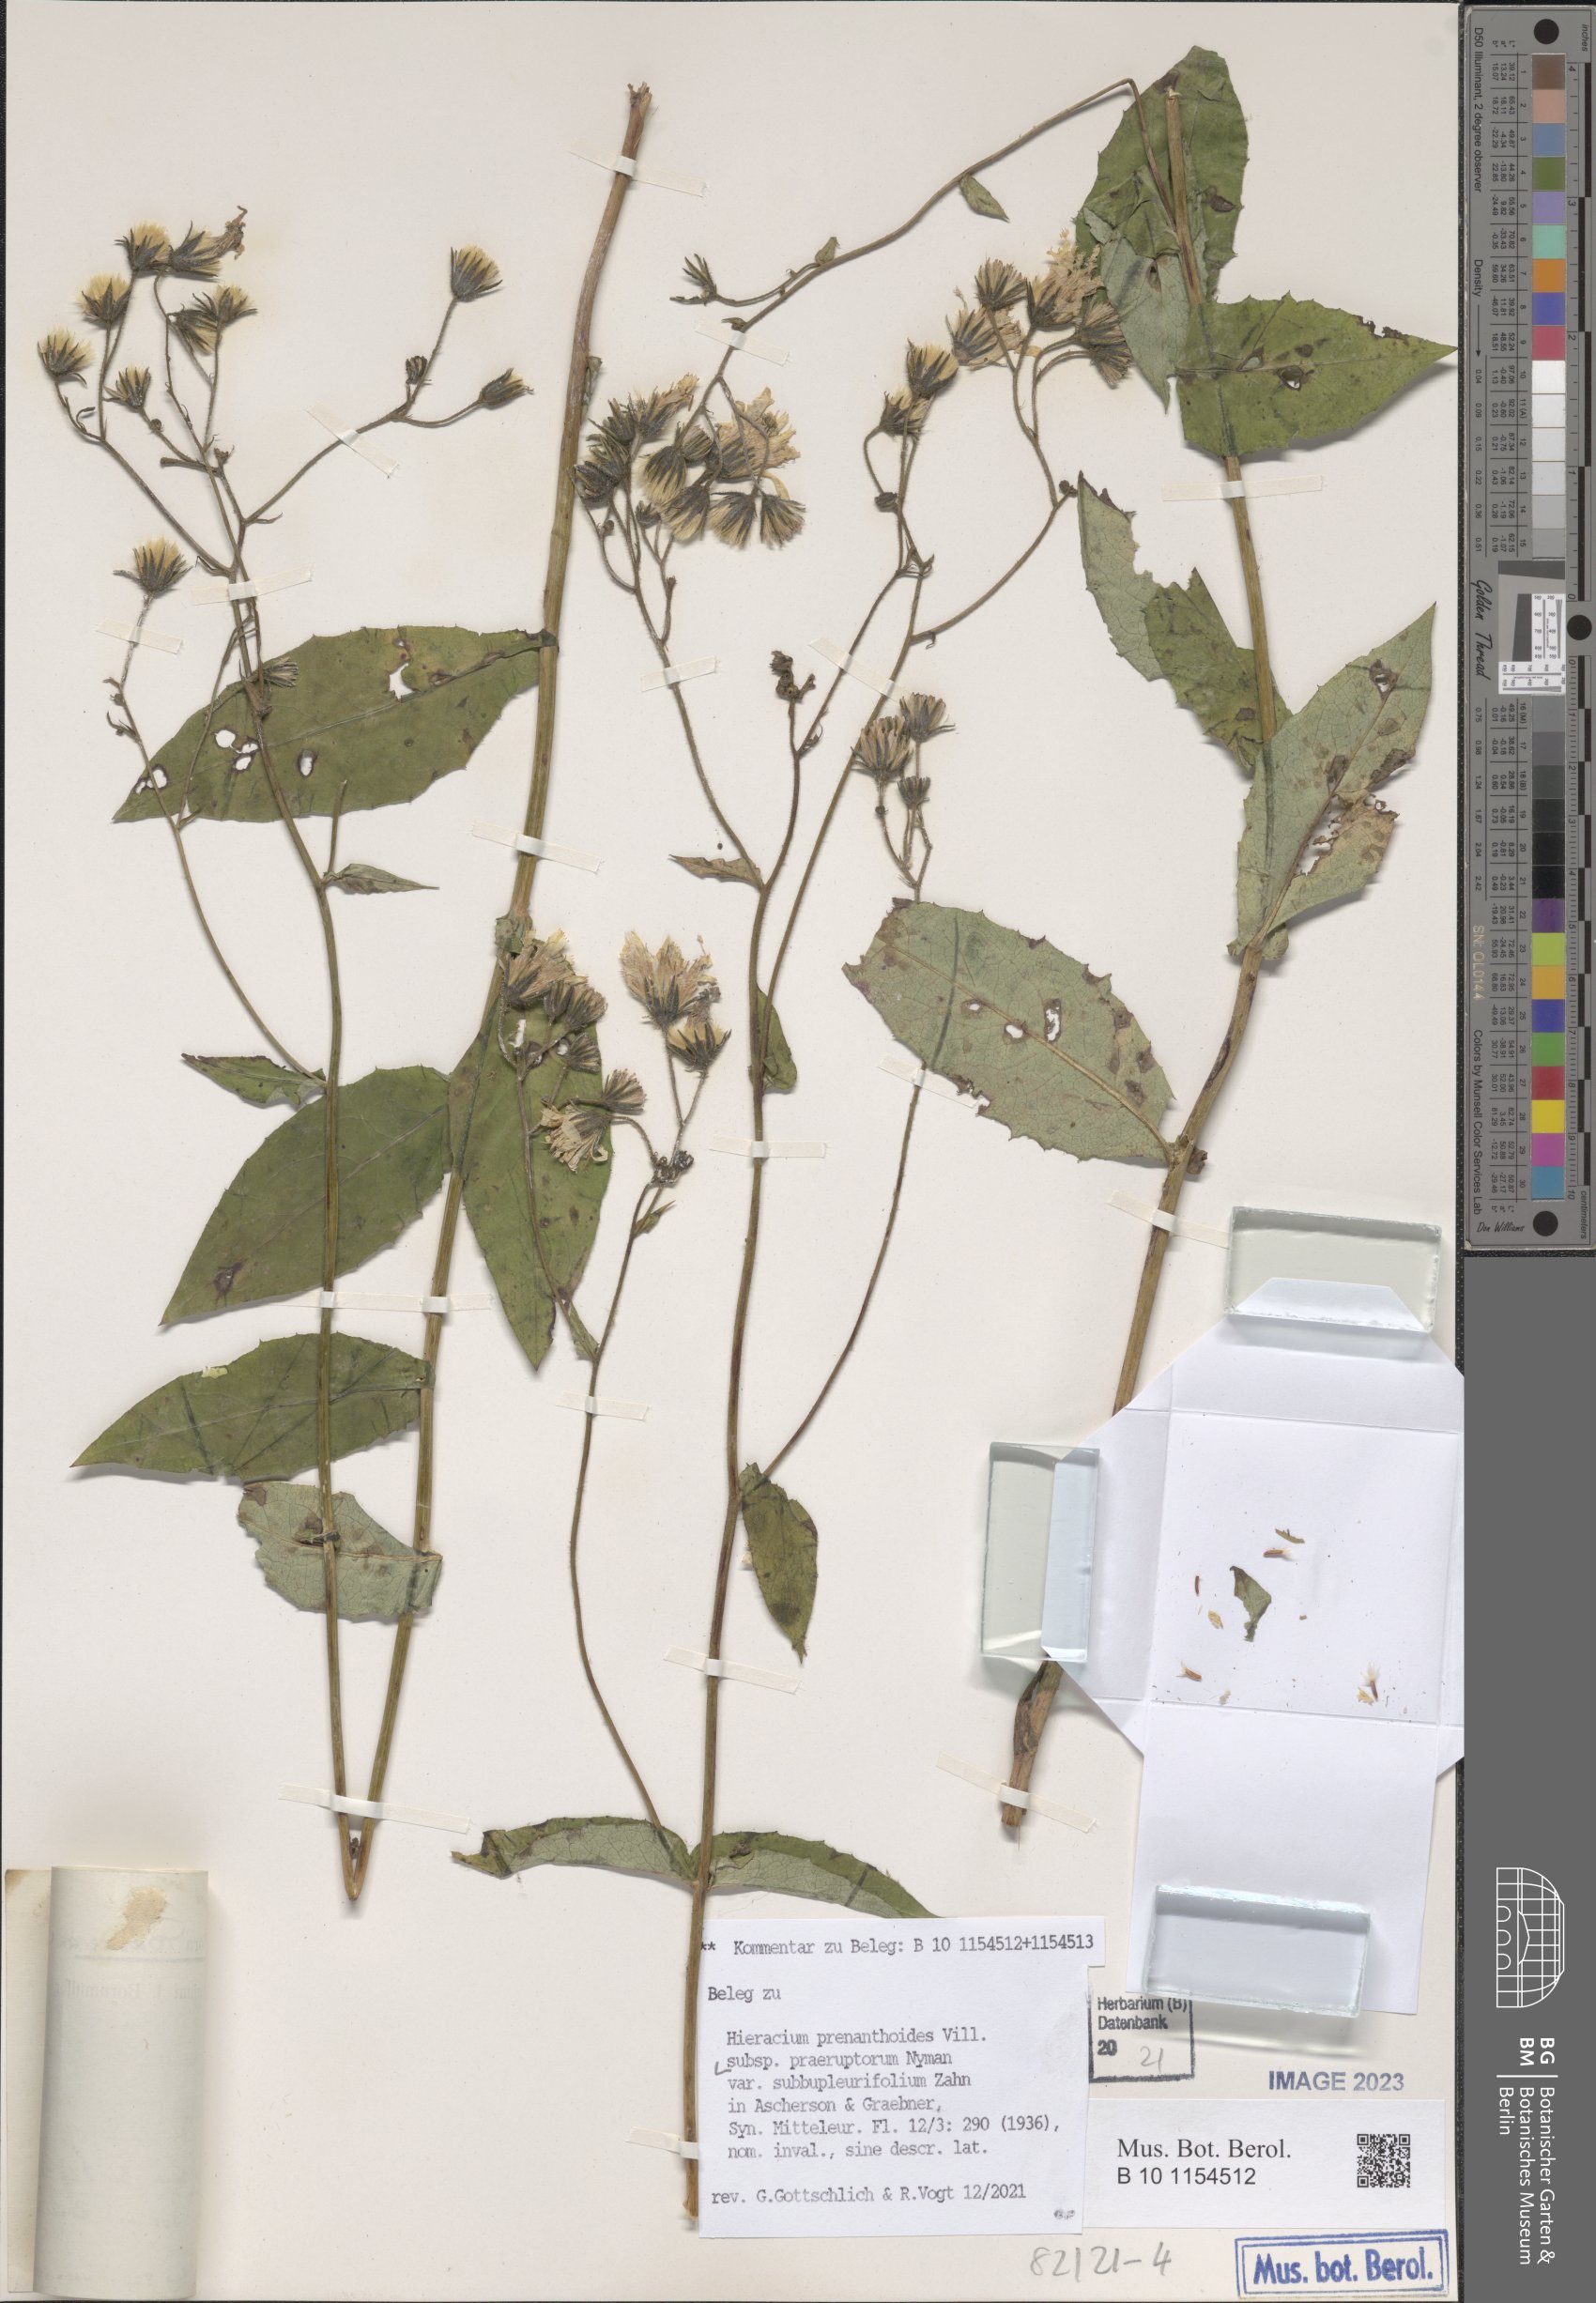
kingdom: Plantae
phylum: Tracheophyta
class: Magnoliopsida
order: Asterales
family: Asteraceae
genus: Hieracium
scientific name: Hieracium prenanthoides
